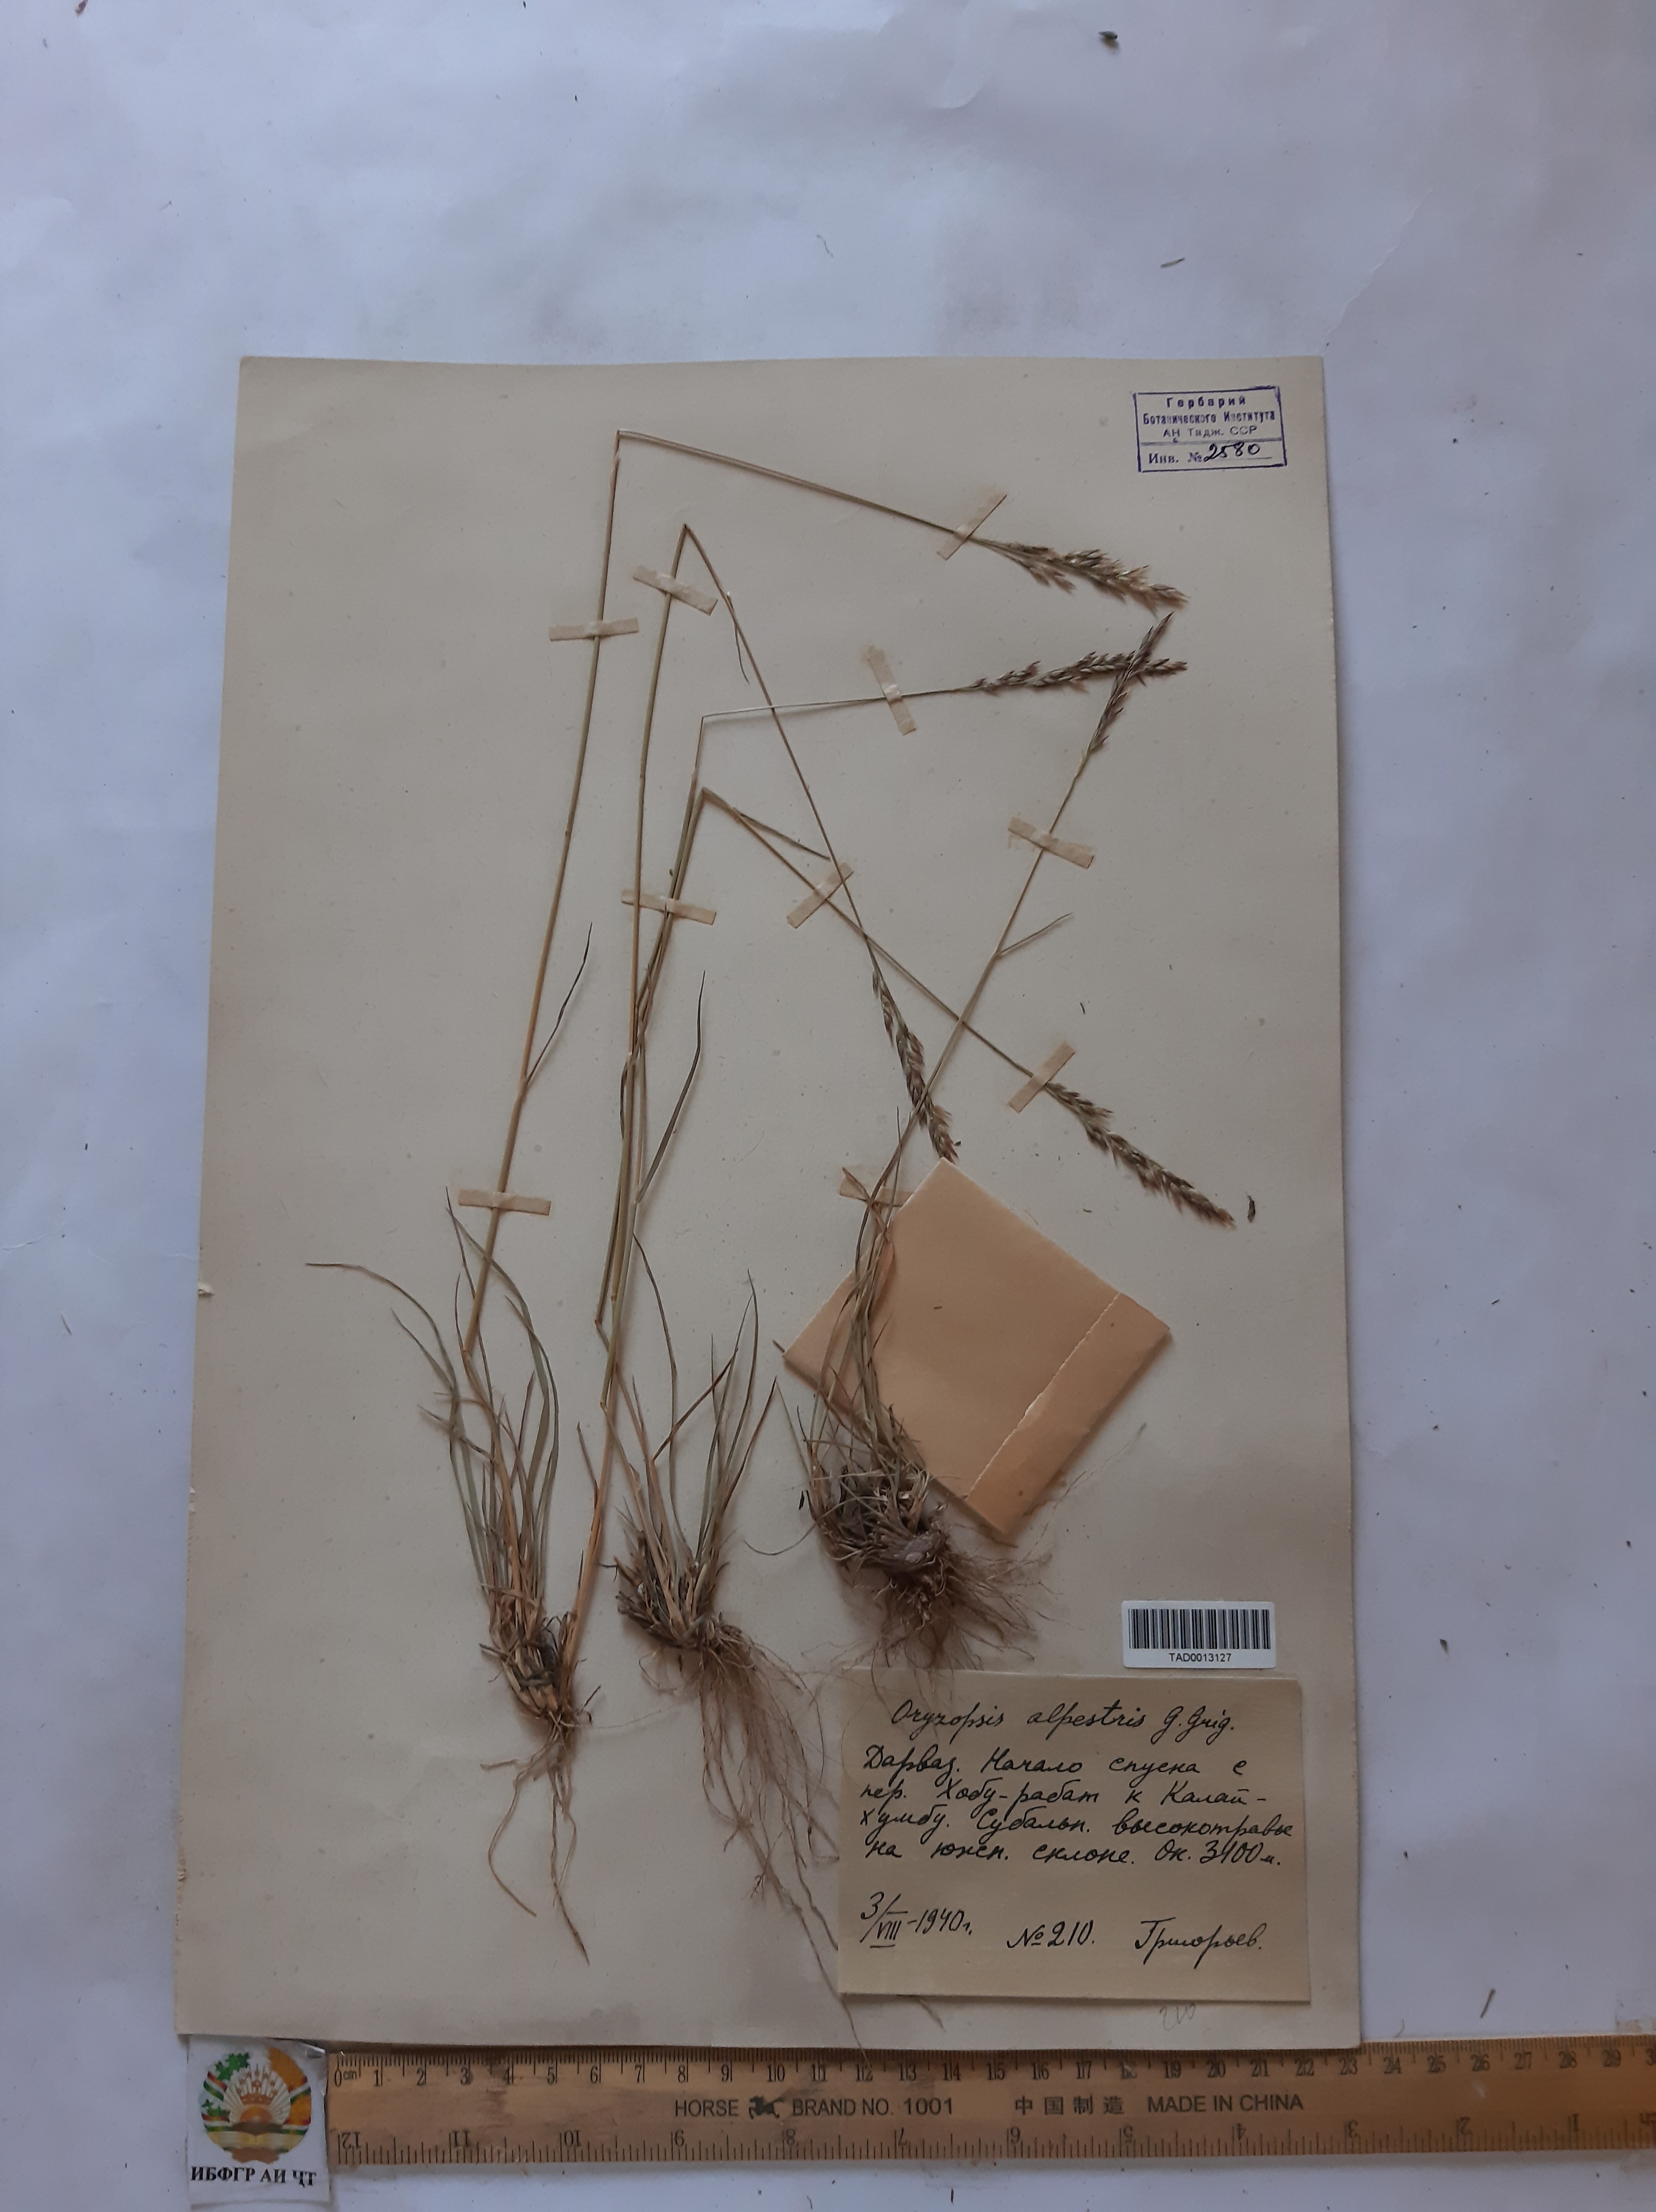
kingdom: Plantae
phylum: Tracheophyta
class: Liliopsida
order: Poales
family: Poaceae
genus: Piptatherum
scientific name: Piptatherum alpestre
